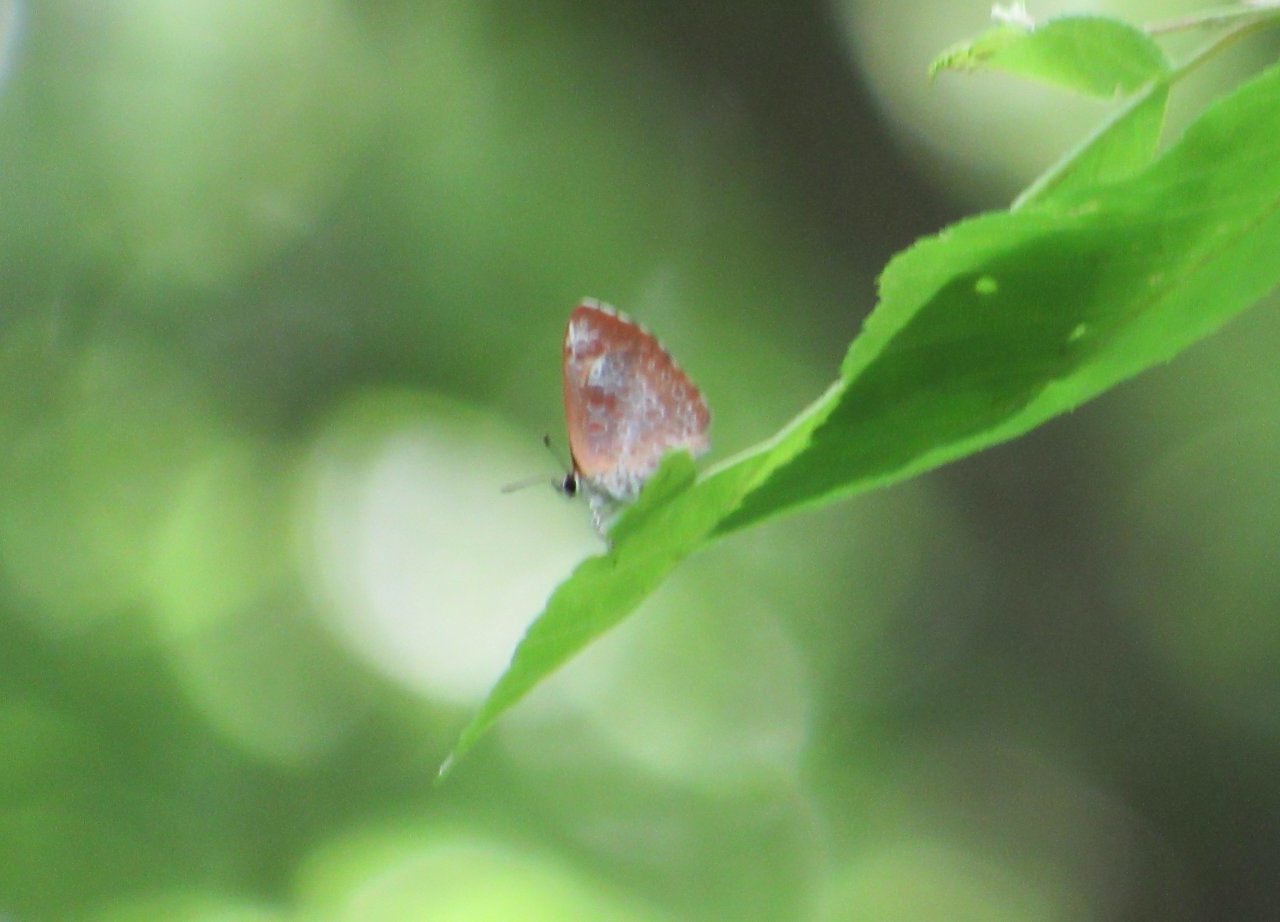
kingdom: Animalia
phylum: Arthropoda
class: Insecta
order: Lepidoptera
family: Lycaenidae
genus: Feniseca
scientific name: Feniseca tarquinius
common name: Harvester
